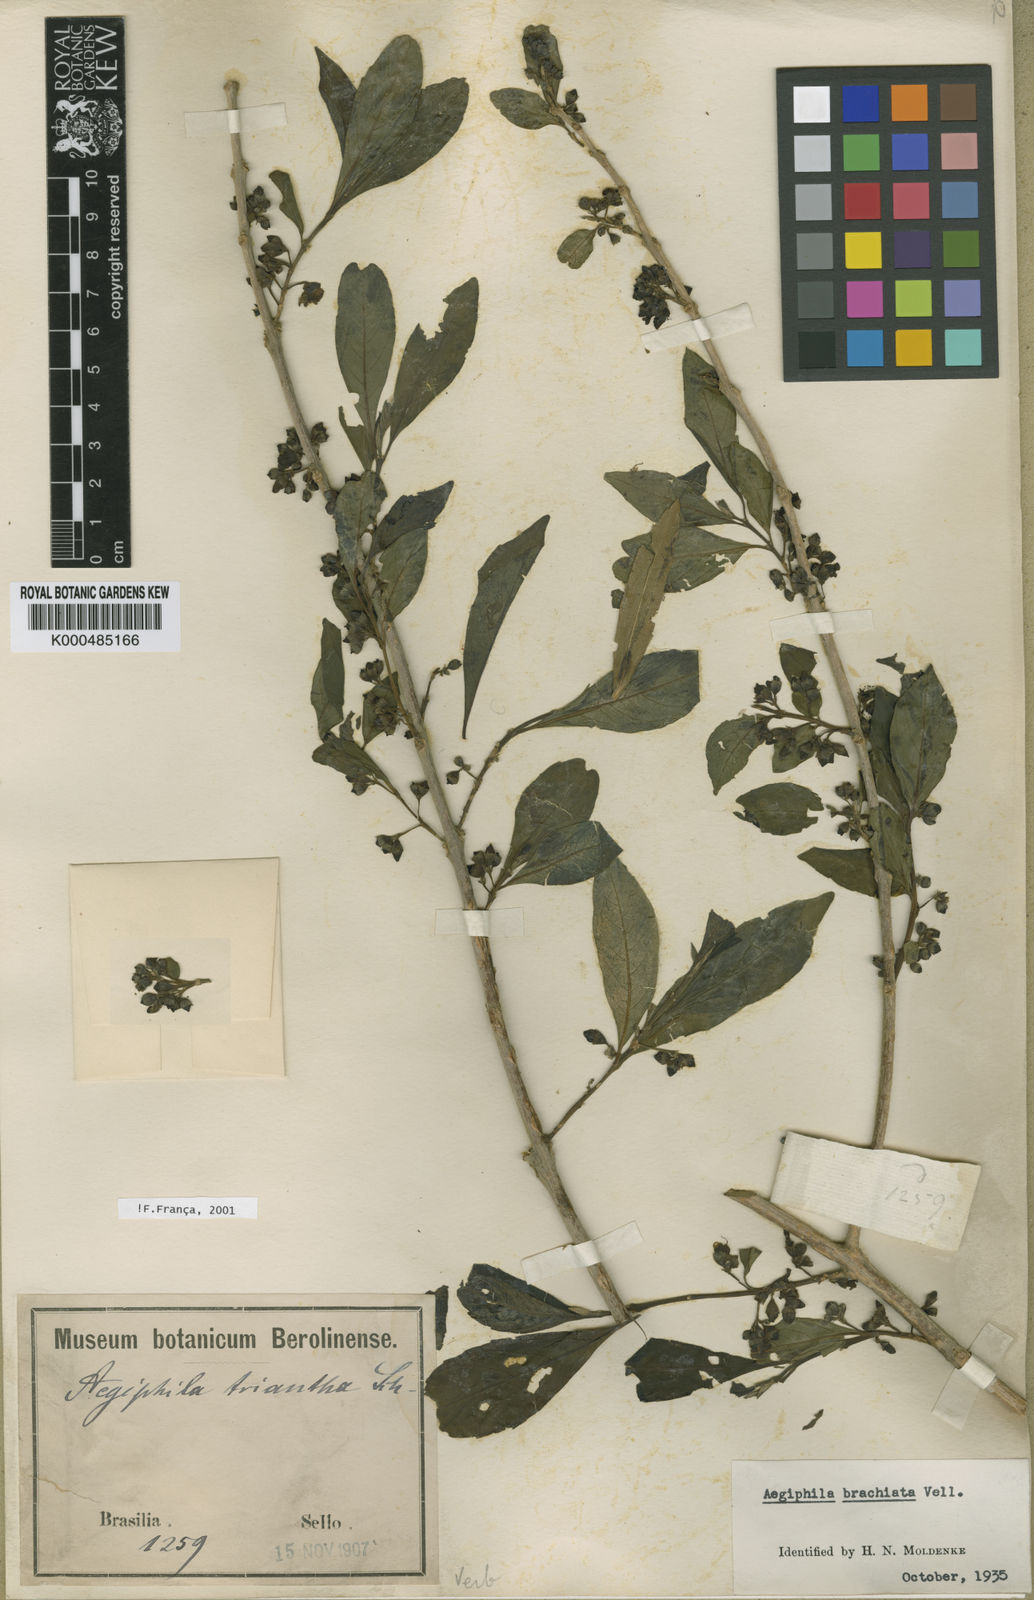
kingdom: Plantae
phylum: Tracheophyta
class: Magnoliopsida
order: Lamiales
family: Lamiaceae
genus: Aegiphila
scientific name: Aegiphila brachiata
